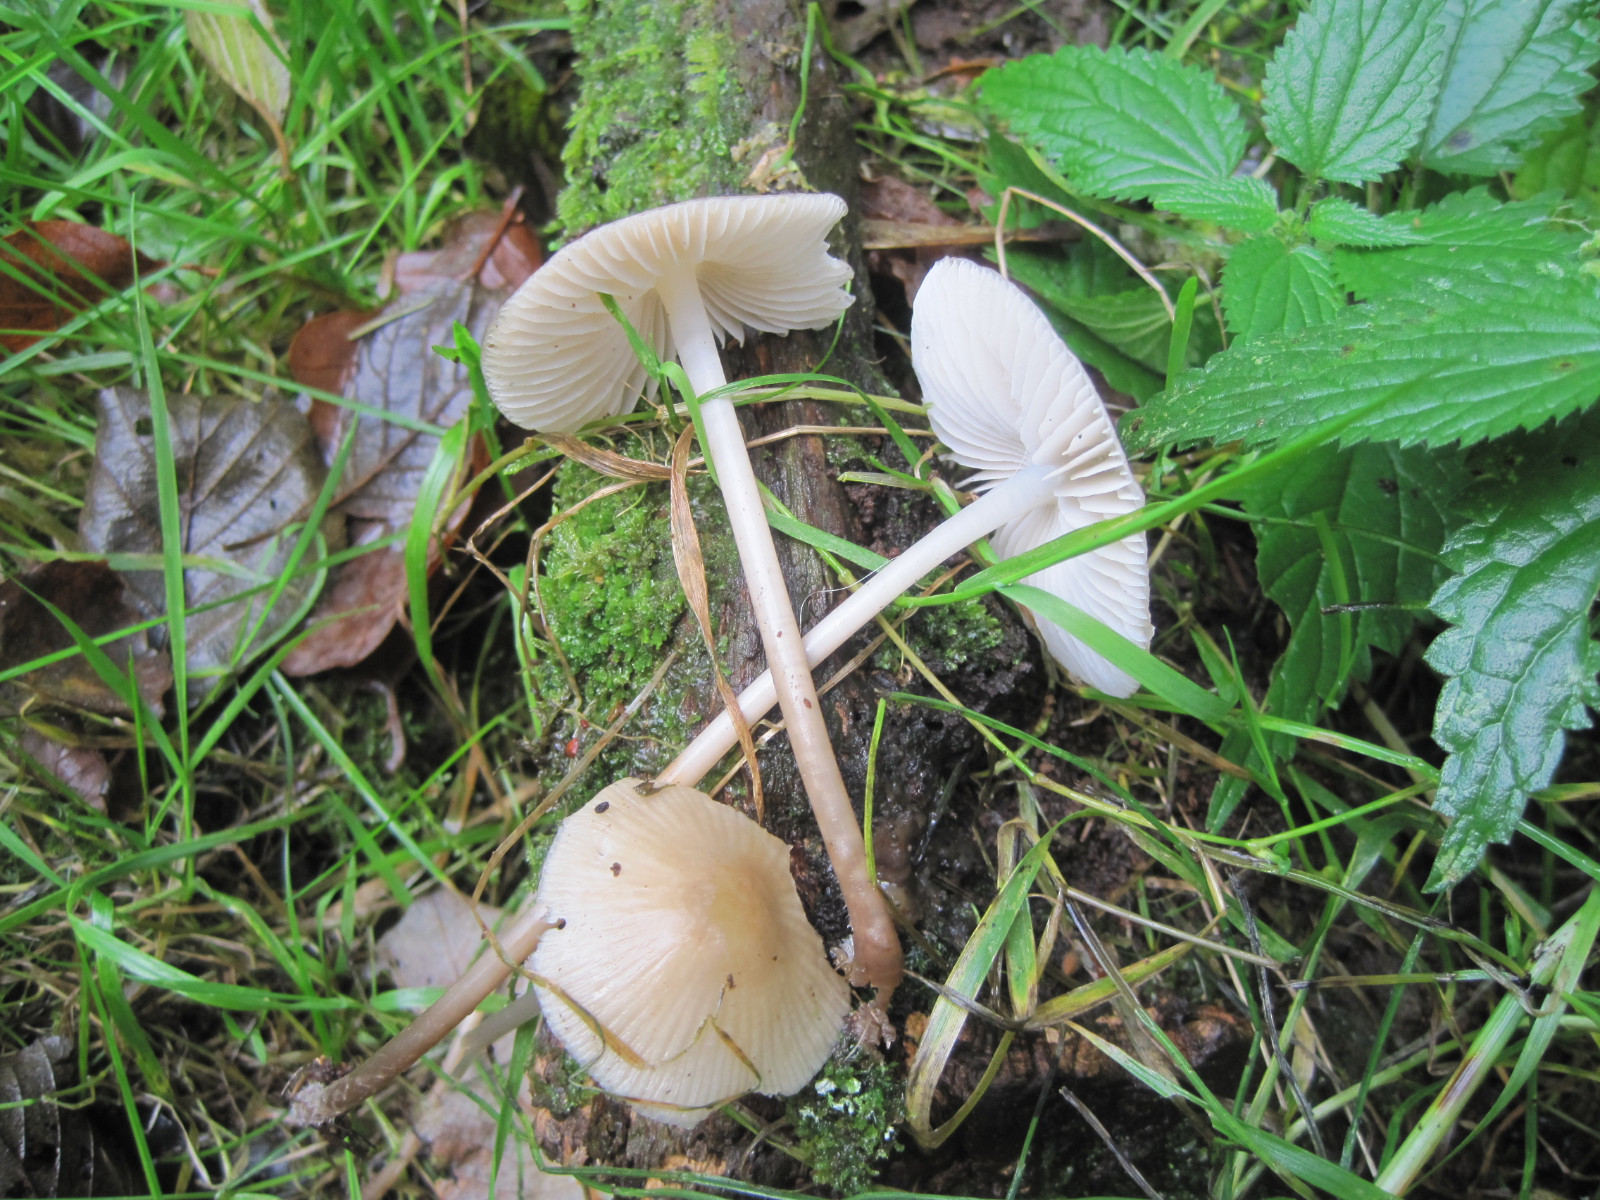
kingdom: Fungi
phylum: Basidiomycota
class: Agaricomycetes
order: Agaricales
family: Mycenaceae
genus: Mycena
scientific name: Mycena galericulata
